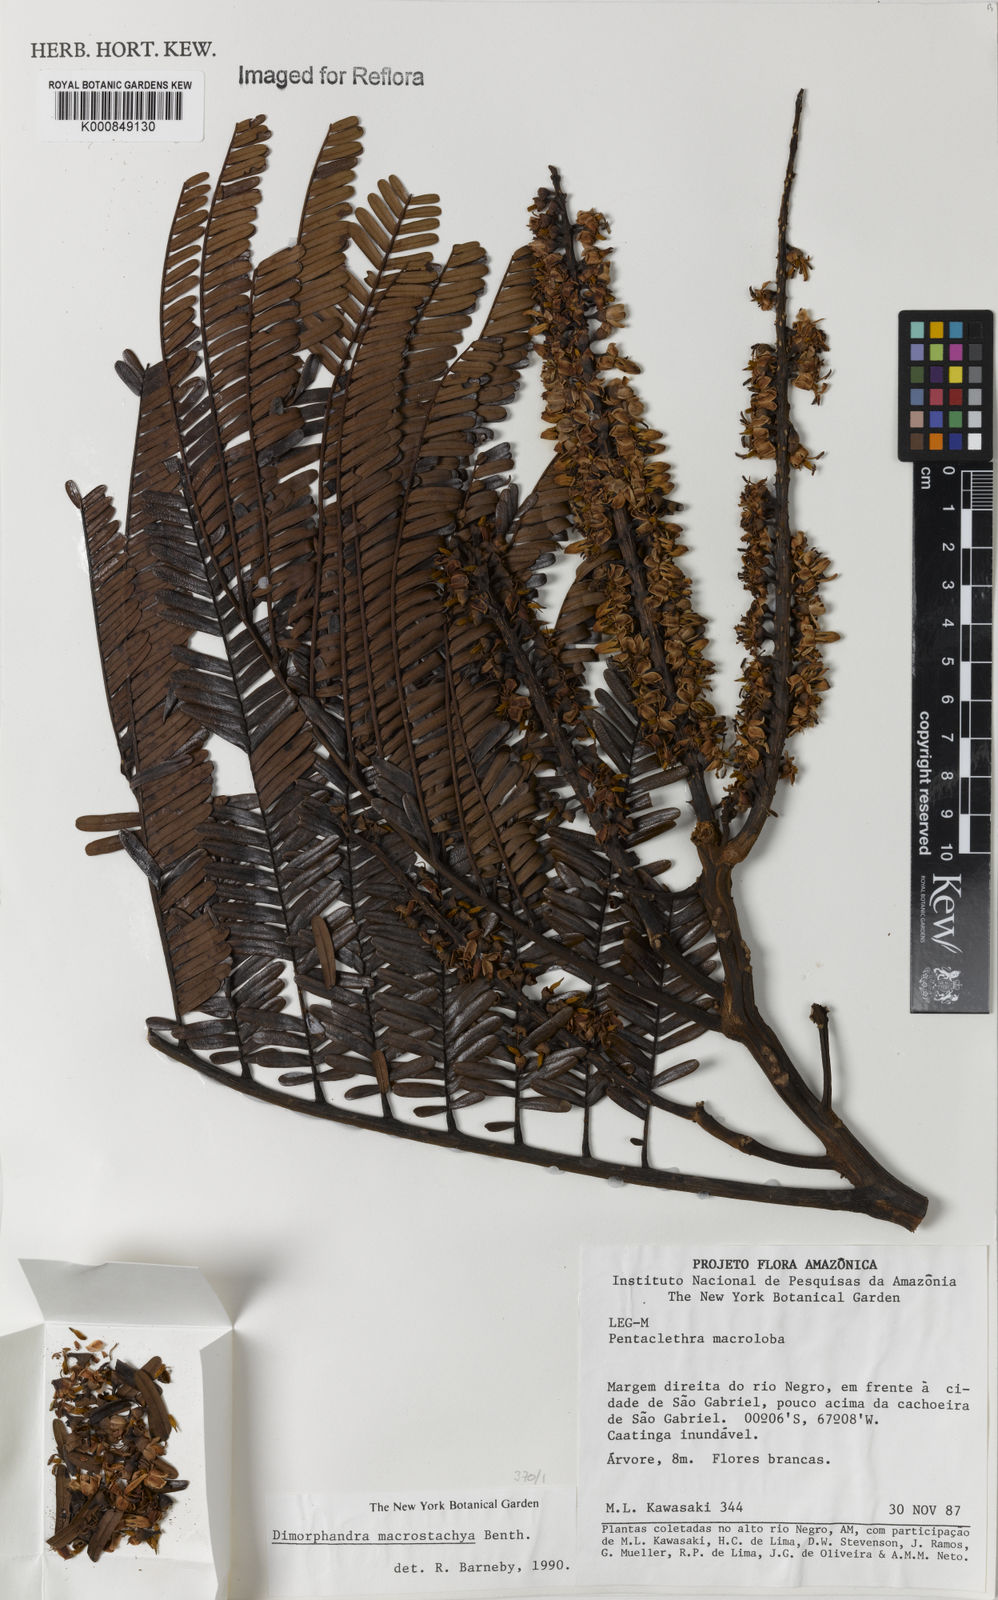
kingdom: Plantae
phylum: Tracheophyta
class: Magnoliopsida
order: Fabales
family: Fabaceae
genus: Dimorphandra
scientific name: Dimorphandra macrostachya
